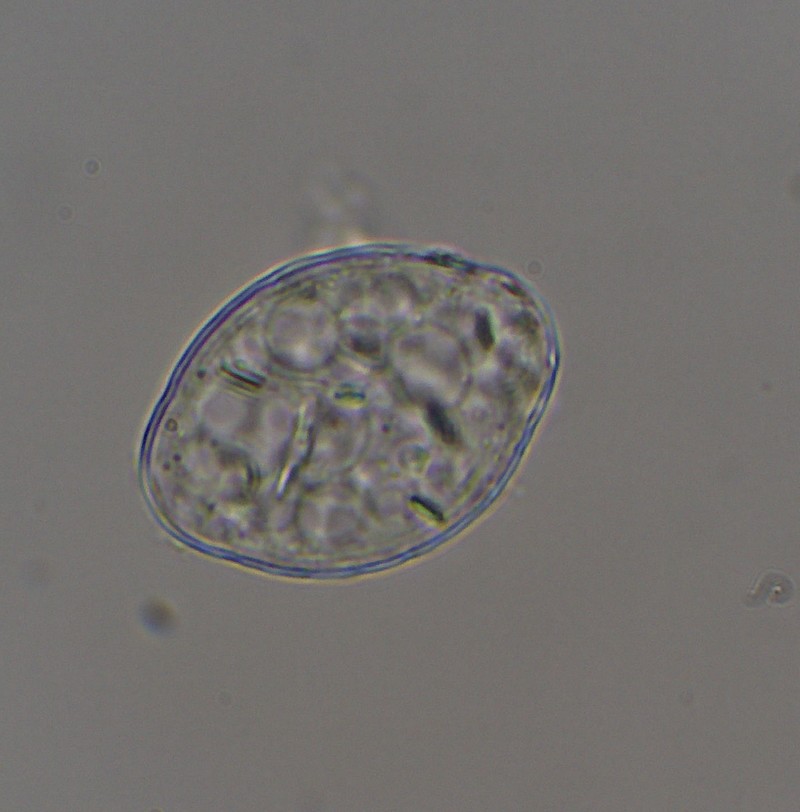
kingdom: Fungi
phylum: Ascomycota
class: Leotiomycetes
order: Helotiales
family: Erysiphaceae
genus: Podosphaera
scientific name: Podosphaera fugax
